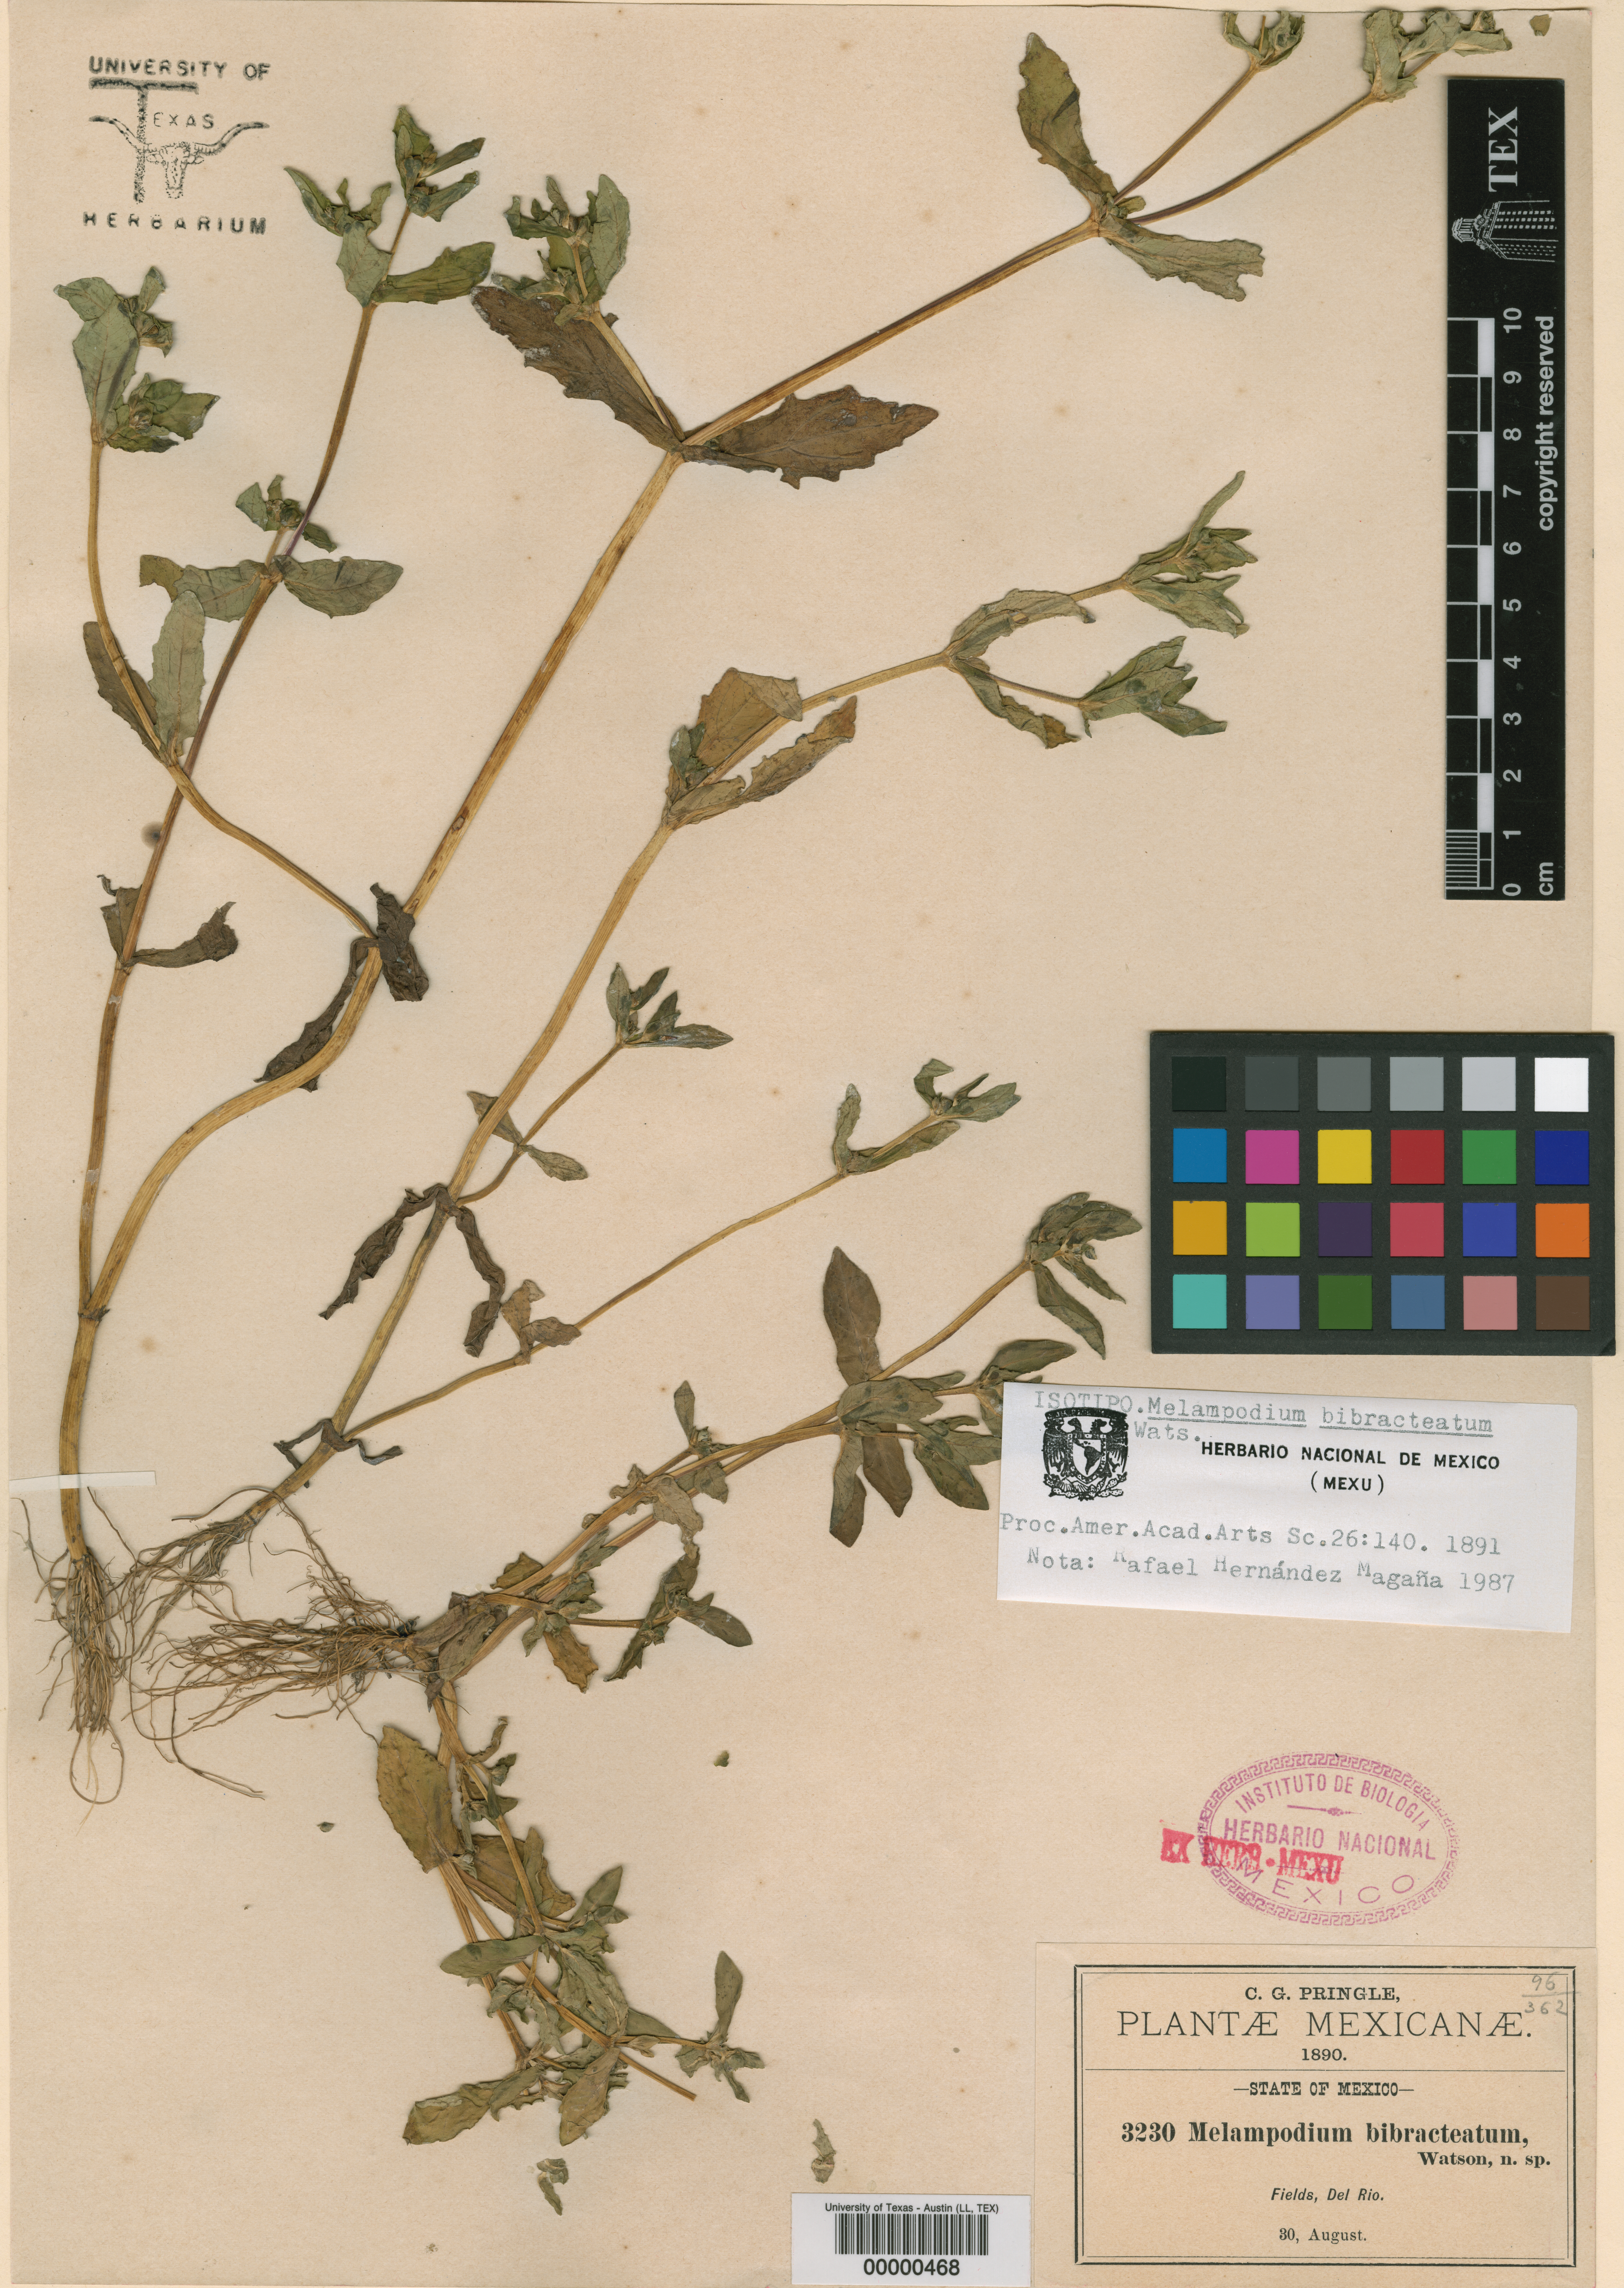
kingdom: Plantae
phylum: Tracheophyta
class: Magnoliopsida
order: Malpighiales
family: Hypericaceae
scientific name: Hypericaceae
